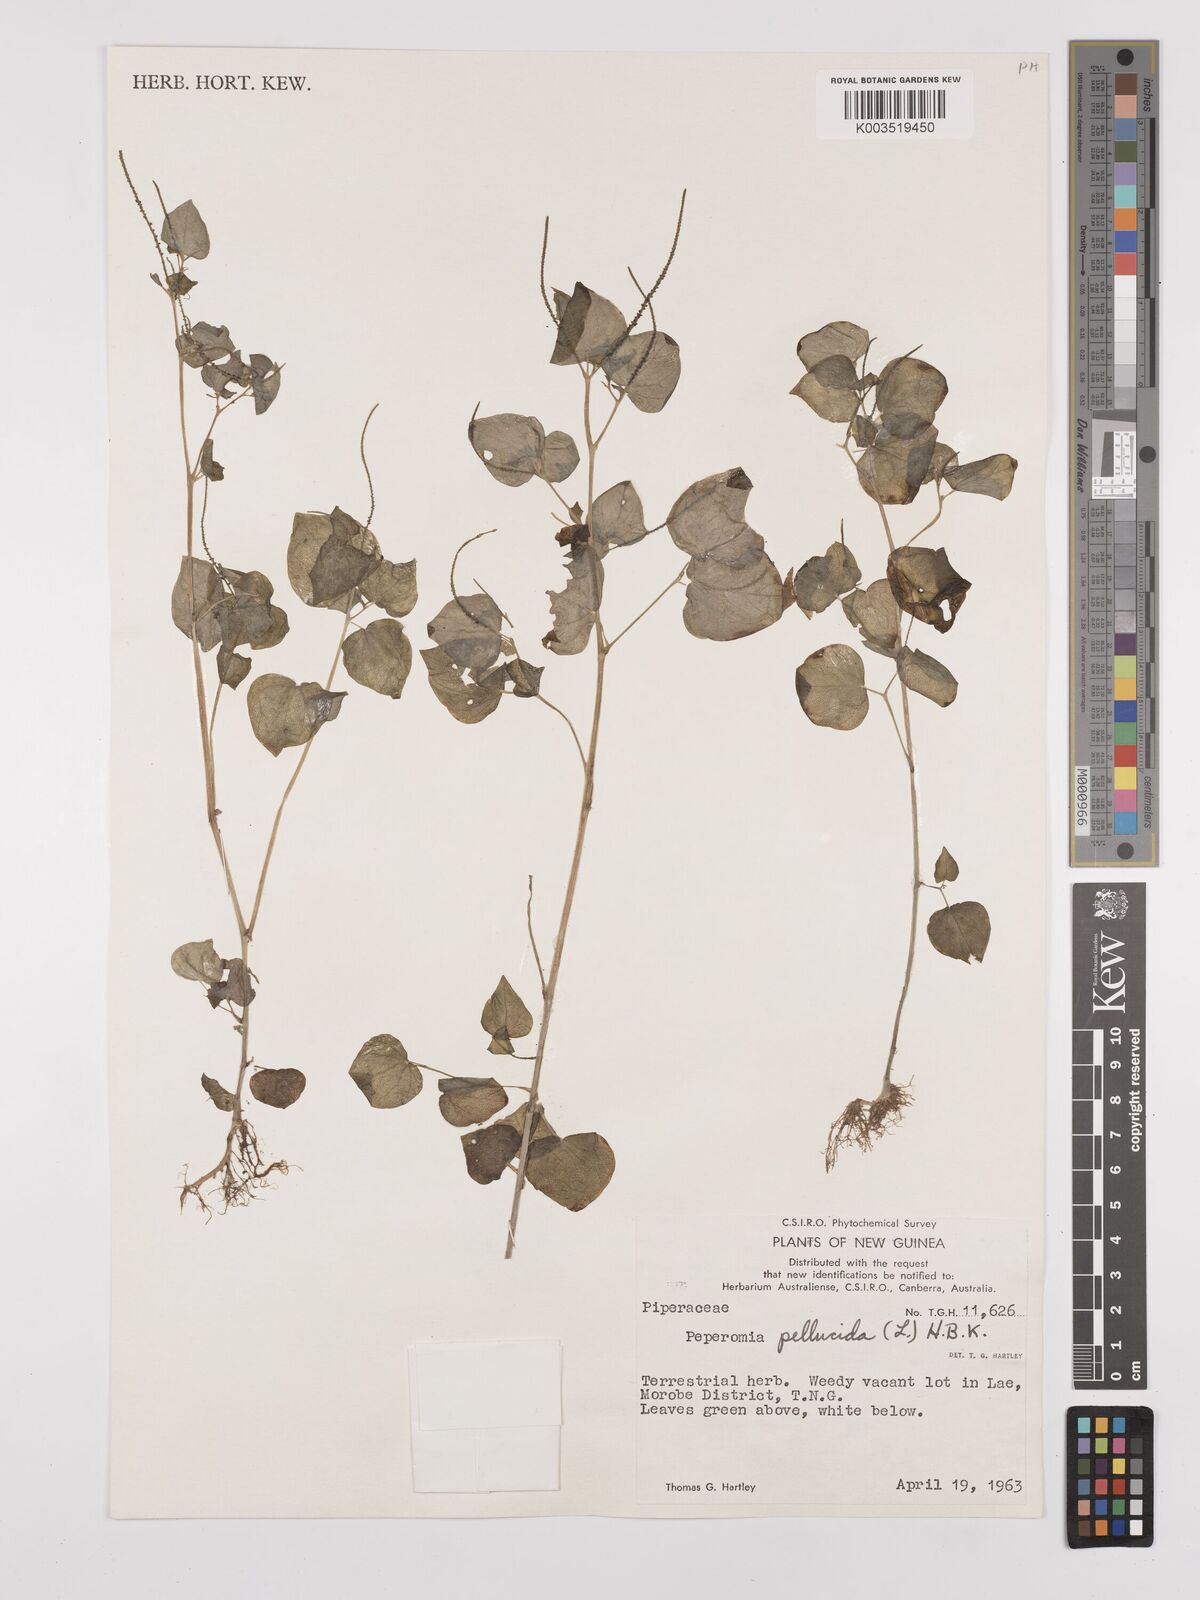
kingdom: Plantae
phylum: Tracheophyta
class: Magnoliopsida
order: Piperales
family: Piperaceae
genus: Peperomia
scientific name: Peperomia pellucida
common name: Man to man
